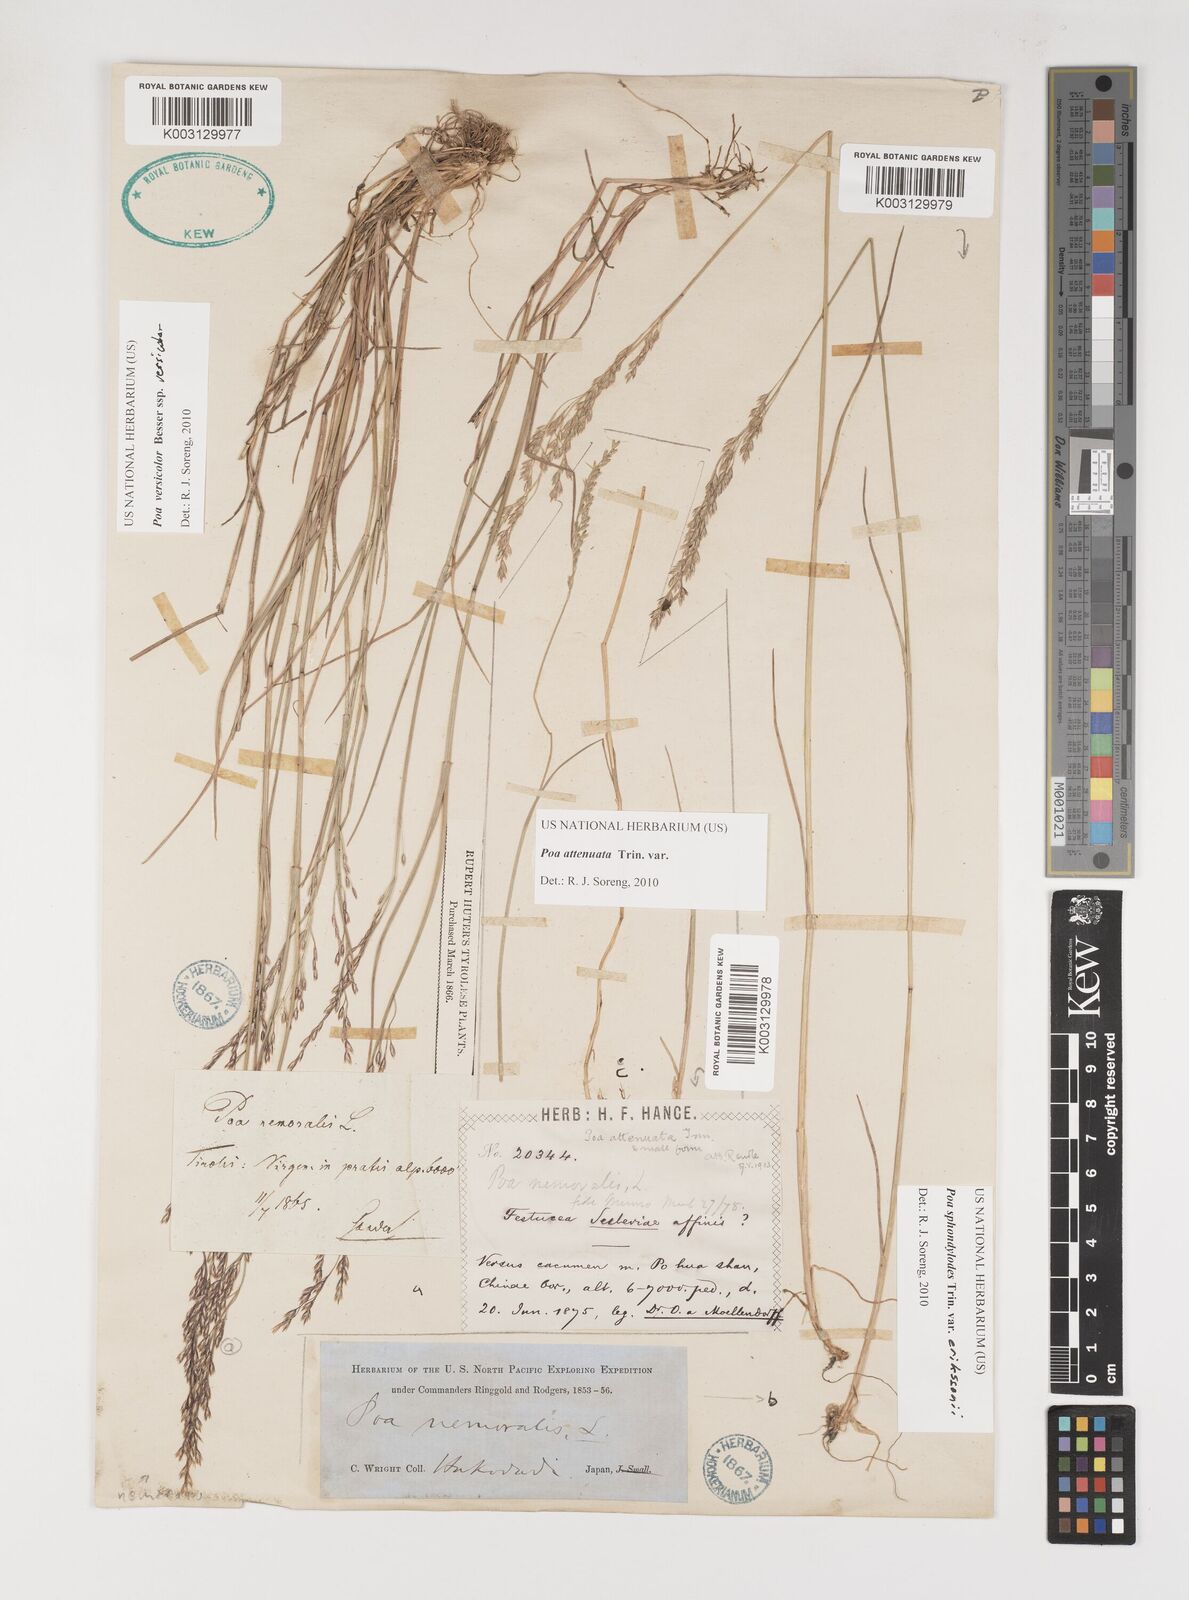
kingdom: Plantae
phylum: Tracheophyta
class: Liliopsida
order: Poales
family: Poaceae
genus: Poa
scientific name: Poa attenuata
